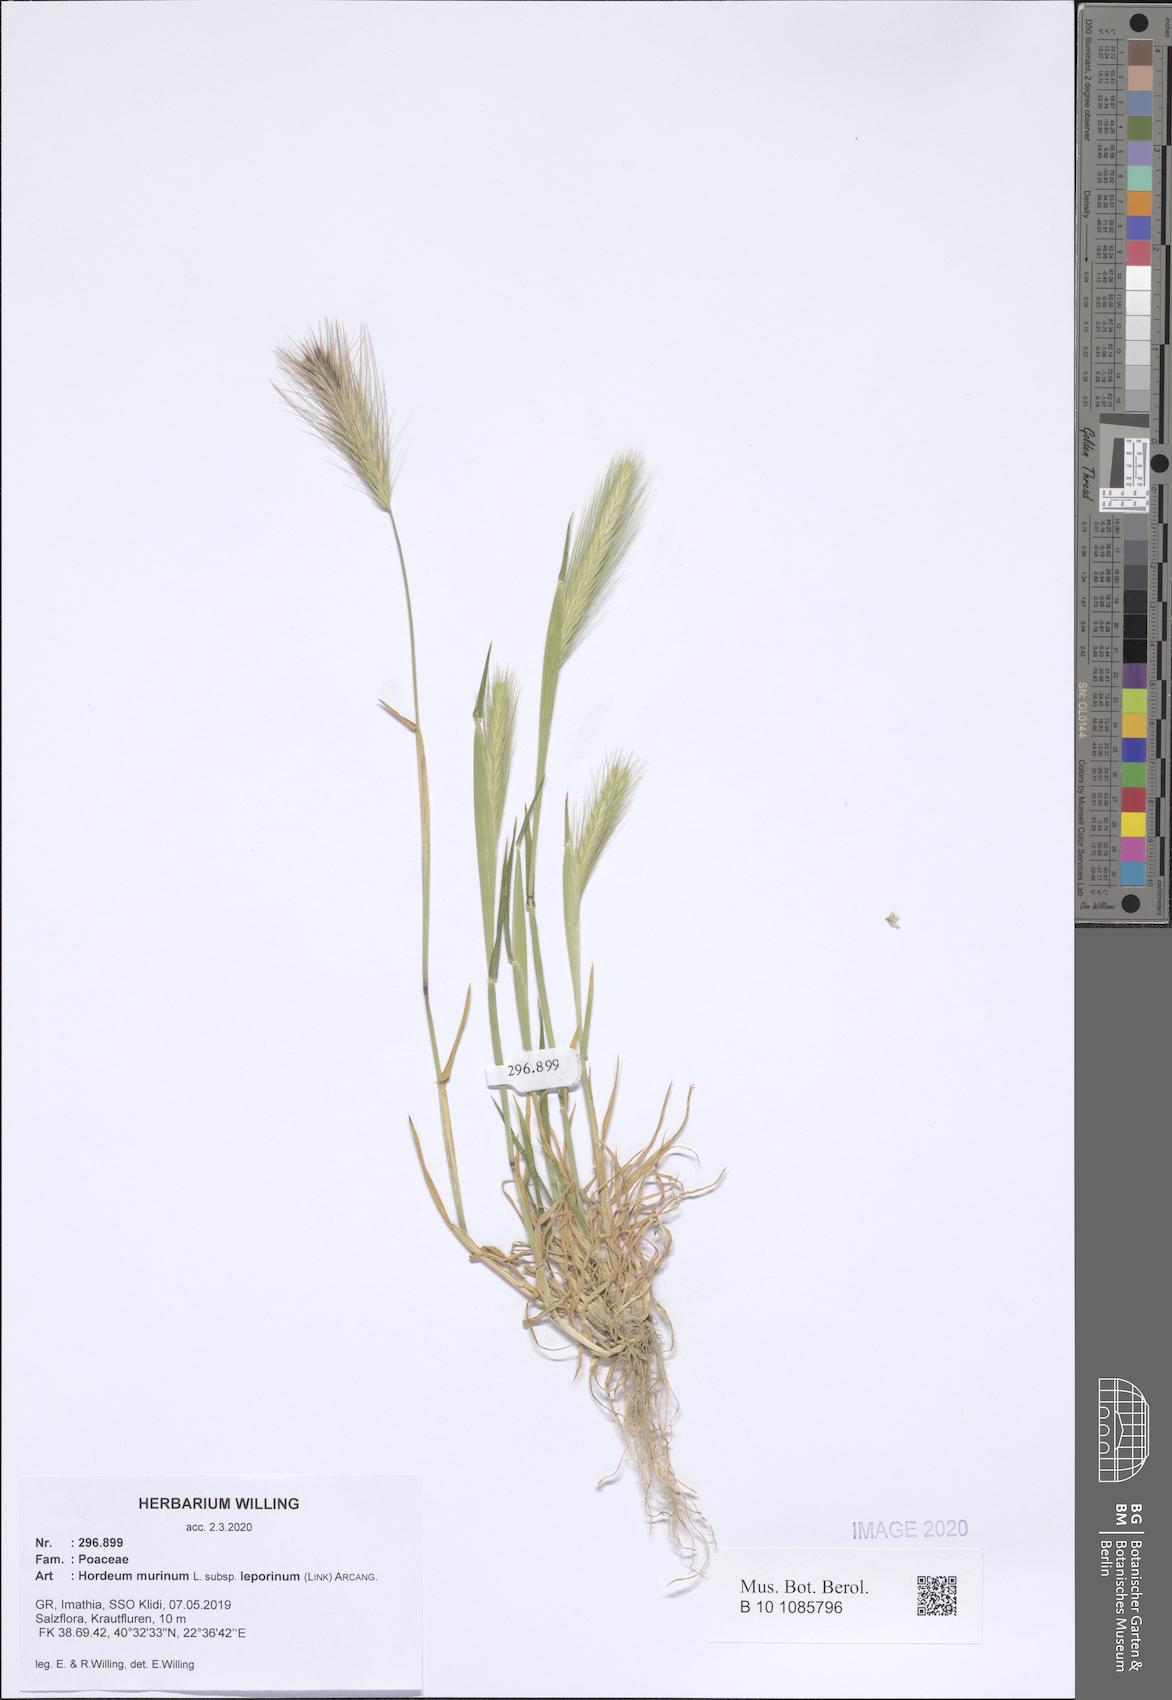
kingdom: Plantae
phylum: Tracheophyta
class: Liliopsida
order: Poales
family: Poaceae
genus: Hordeum
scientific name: Hordeum murinum
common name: Wall barley
